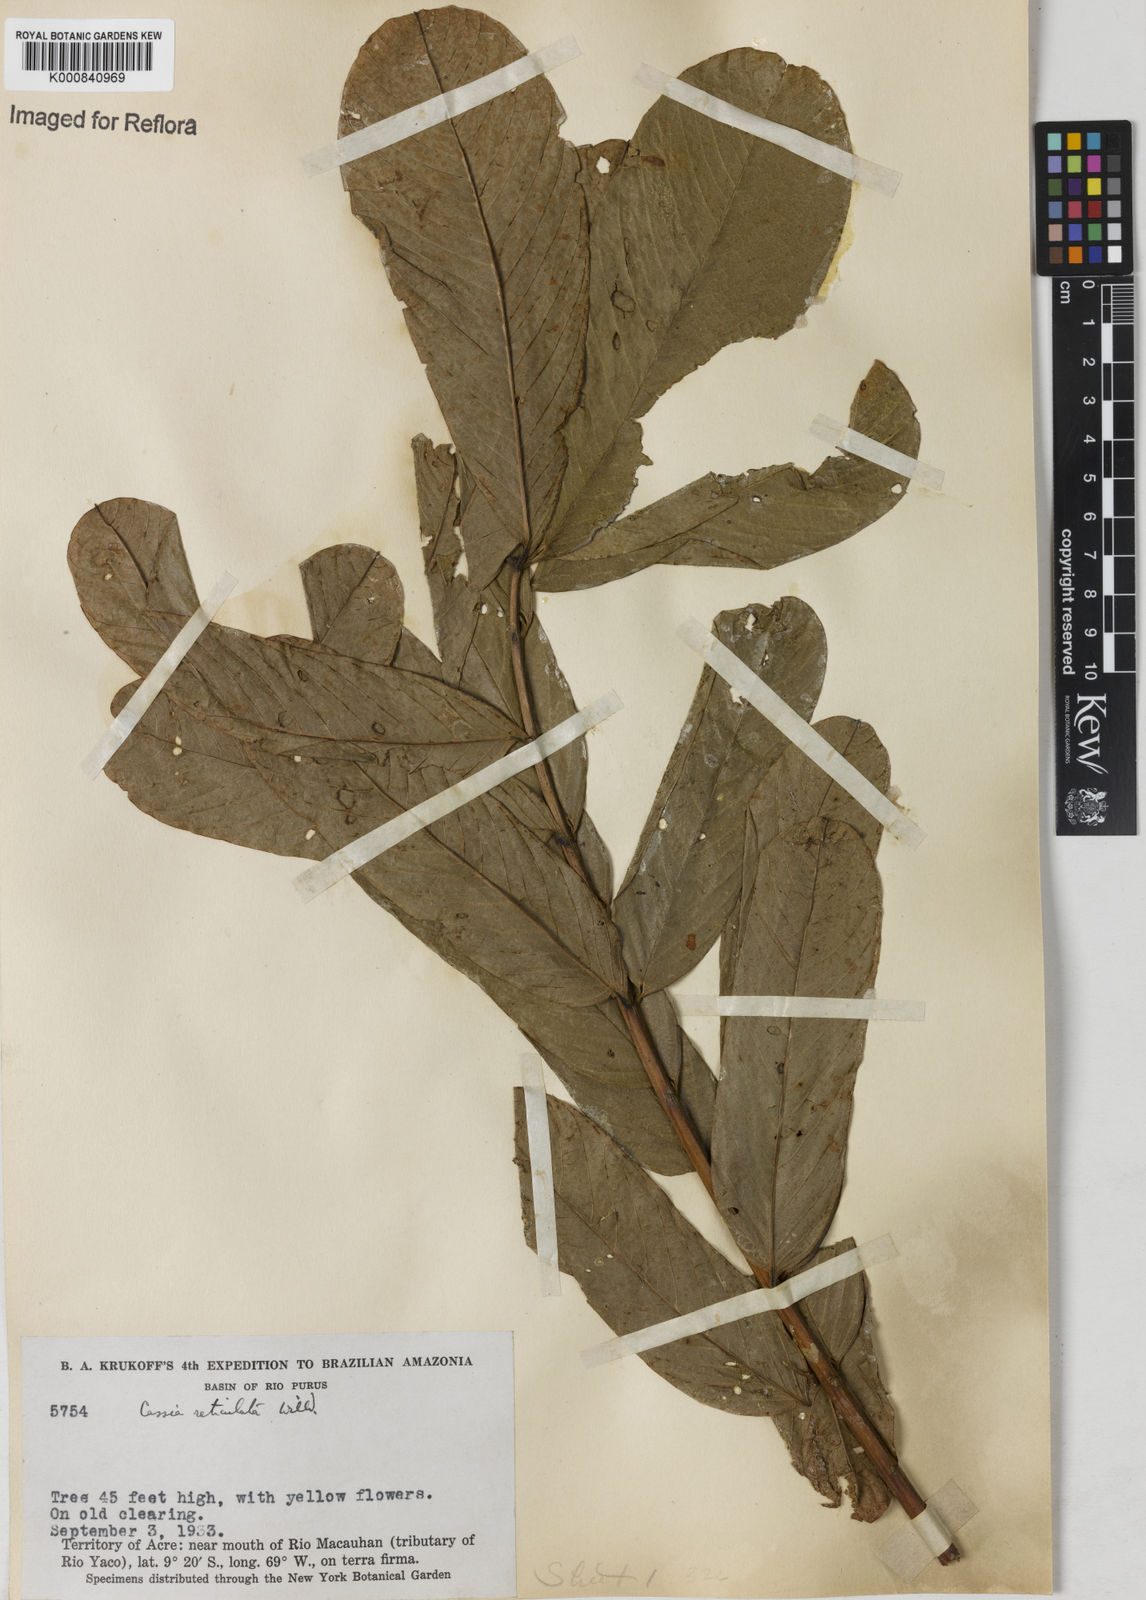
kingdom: Plantae
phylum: Tracheophyta
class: Magnoliopsida
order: Fabales
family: Fabaceae
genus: Senna
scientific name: Senna reticulata
